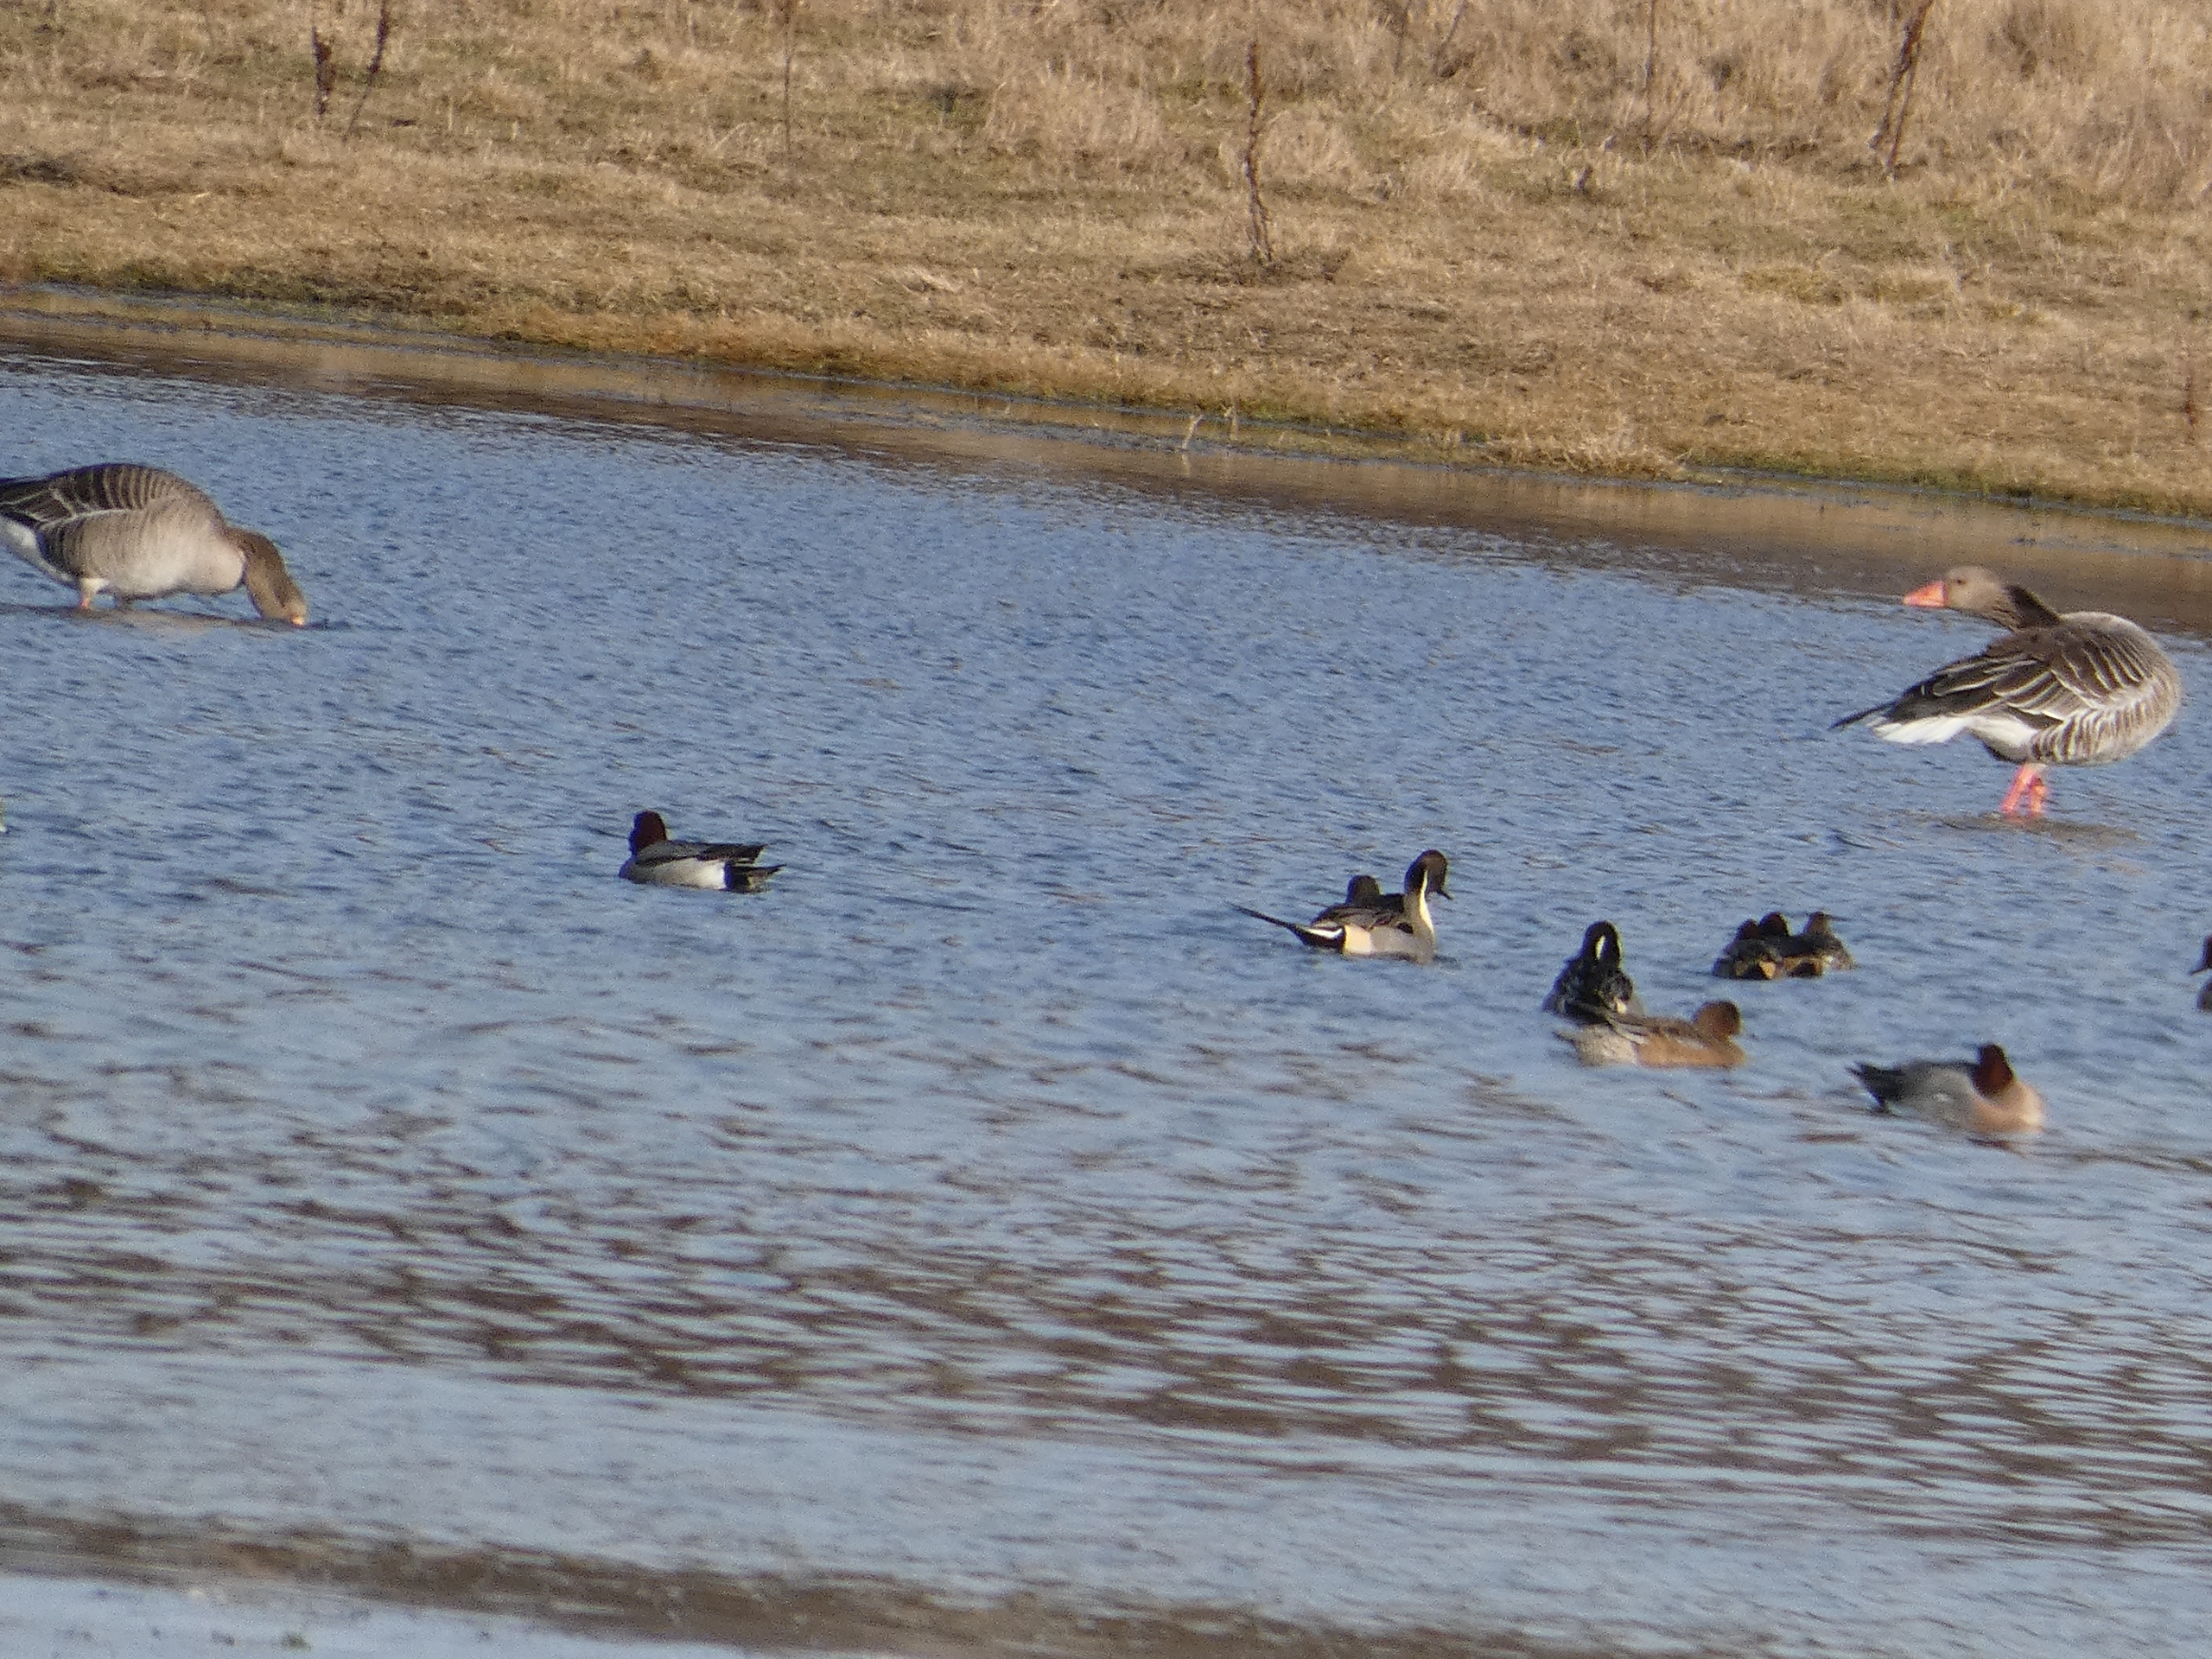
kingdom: Animalia
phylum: Chordata
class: Aves
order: Anseriformes
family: Anatidae
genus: Anser
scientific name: Anser anser
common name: Grågås
